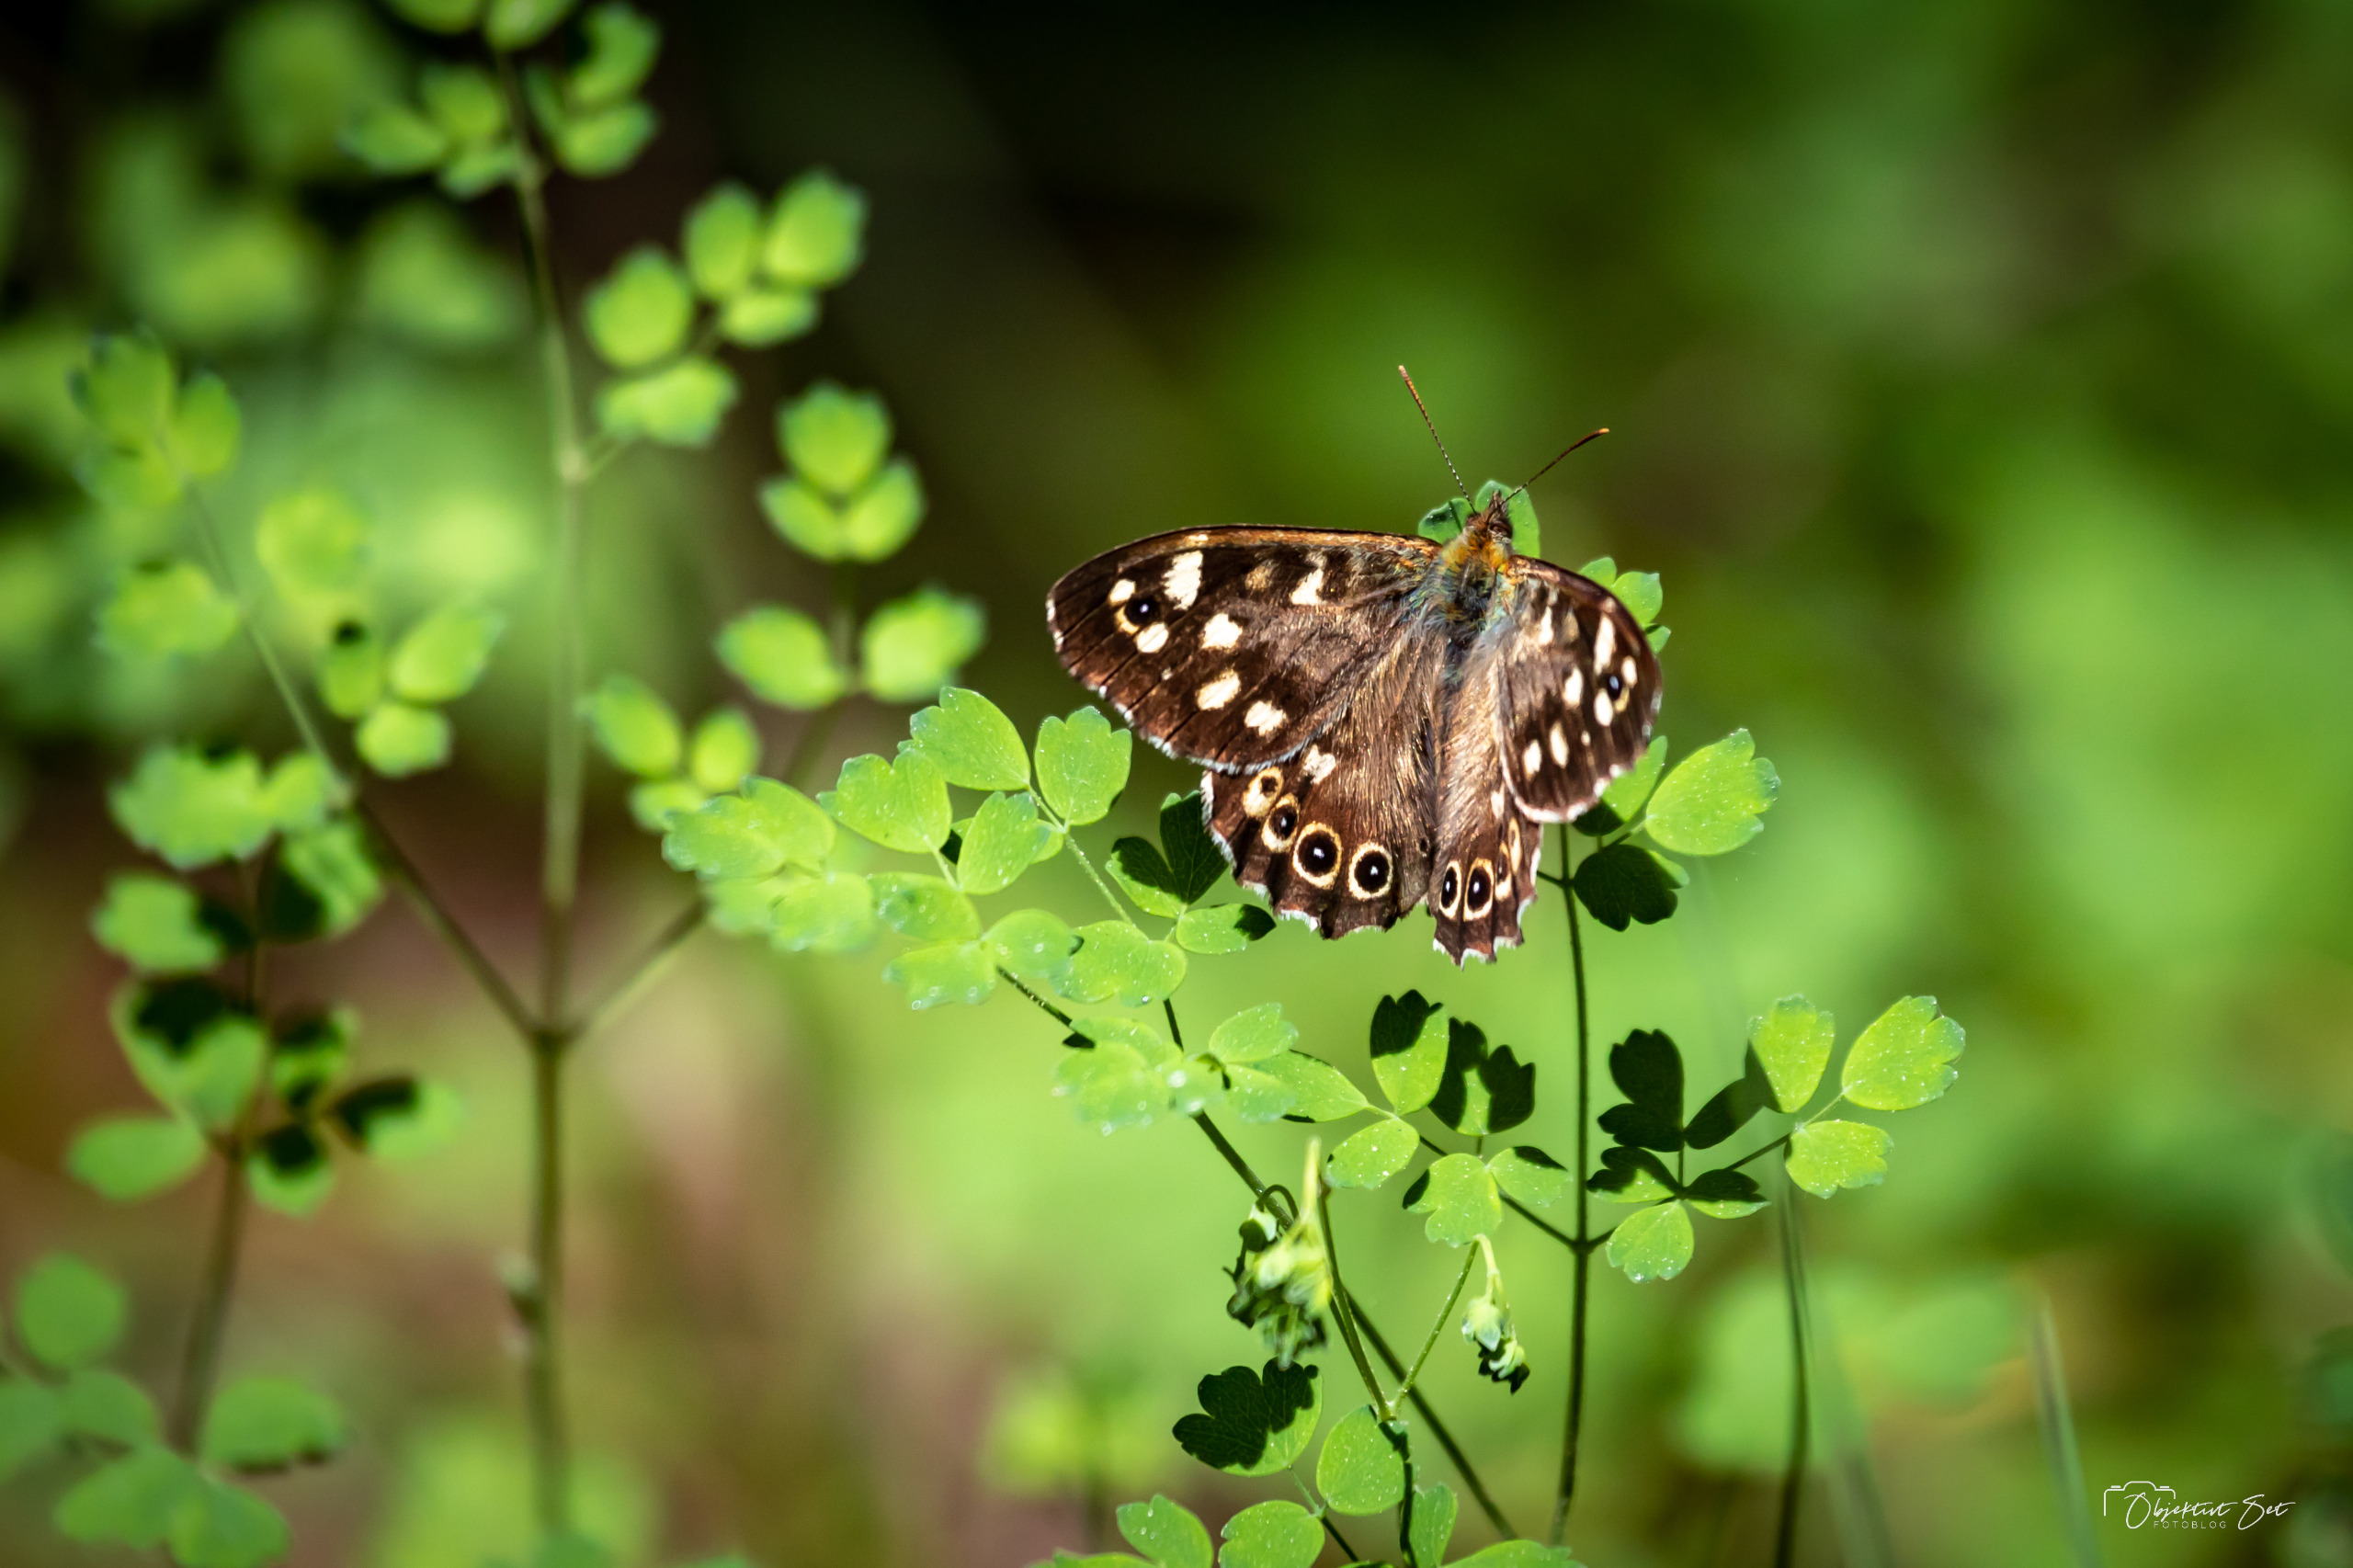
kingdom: Animalia
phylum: Arthropoda
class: Insecta
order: Lepidoptera
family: Nymphalidae
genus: Pararge
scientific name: Pararge aegeria
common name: Skovrandøje
